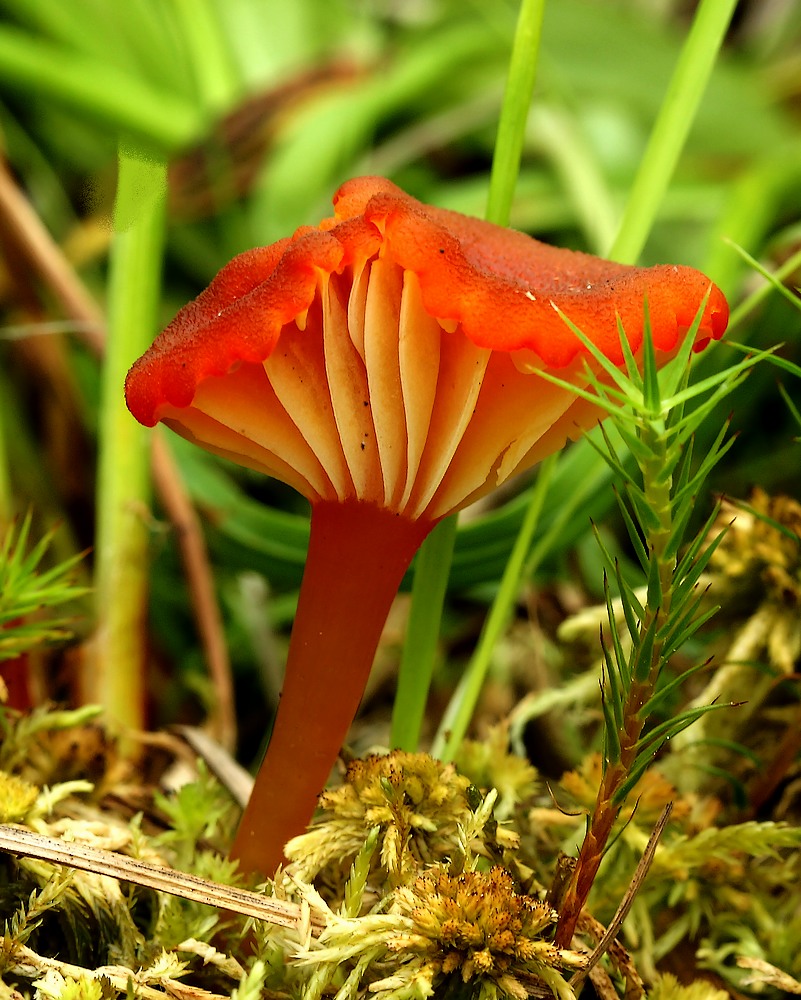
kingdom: Fungi
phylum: Basidiomycota
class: Agaricomycetes
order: Agaricales
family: Hygrophoraceae
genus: Hygrocybe
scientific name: Hygrocybe coccineocrenata
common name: tørvemos-vokshat
